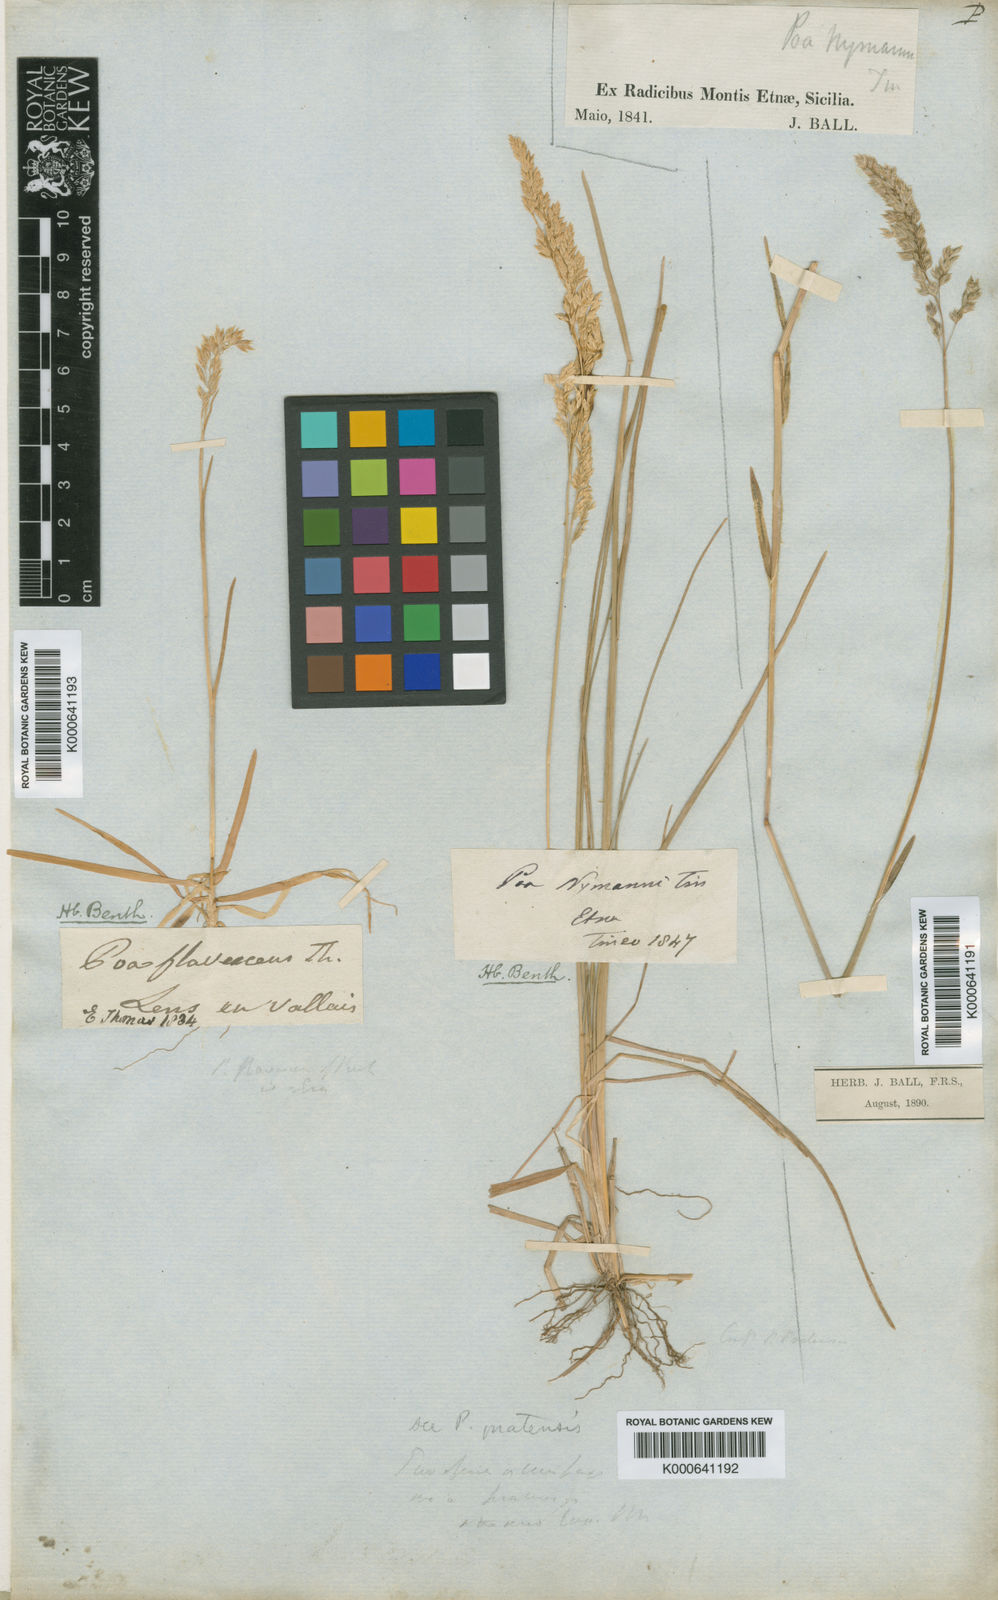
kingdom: Plantae
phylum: Tracheophyta
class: Liliopsida
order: Poales
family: Poaceae
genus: Poa
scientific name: Poa angustifolia
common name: Narrow-leaved meadow-grass
